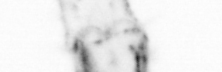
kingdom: Animalia
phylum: Chaetognatha
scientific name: Chaetognatha
